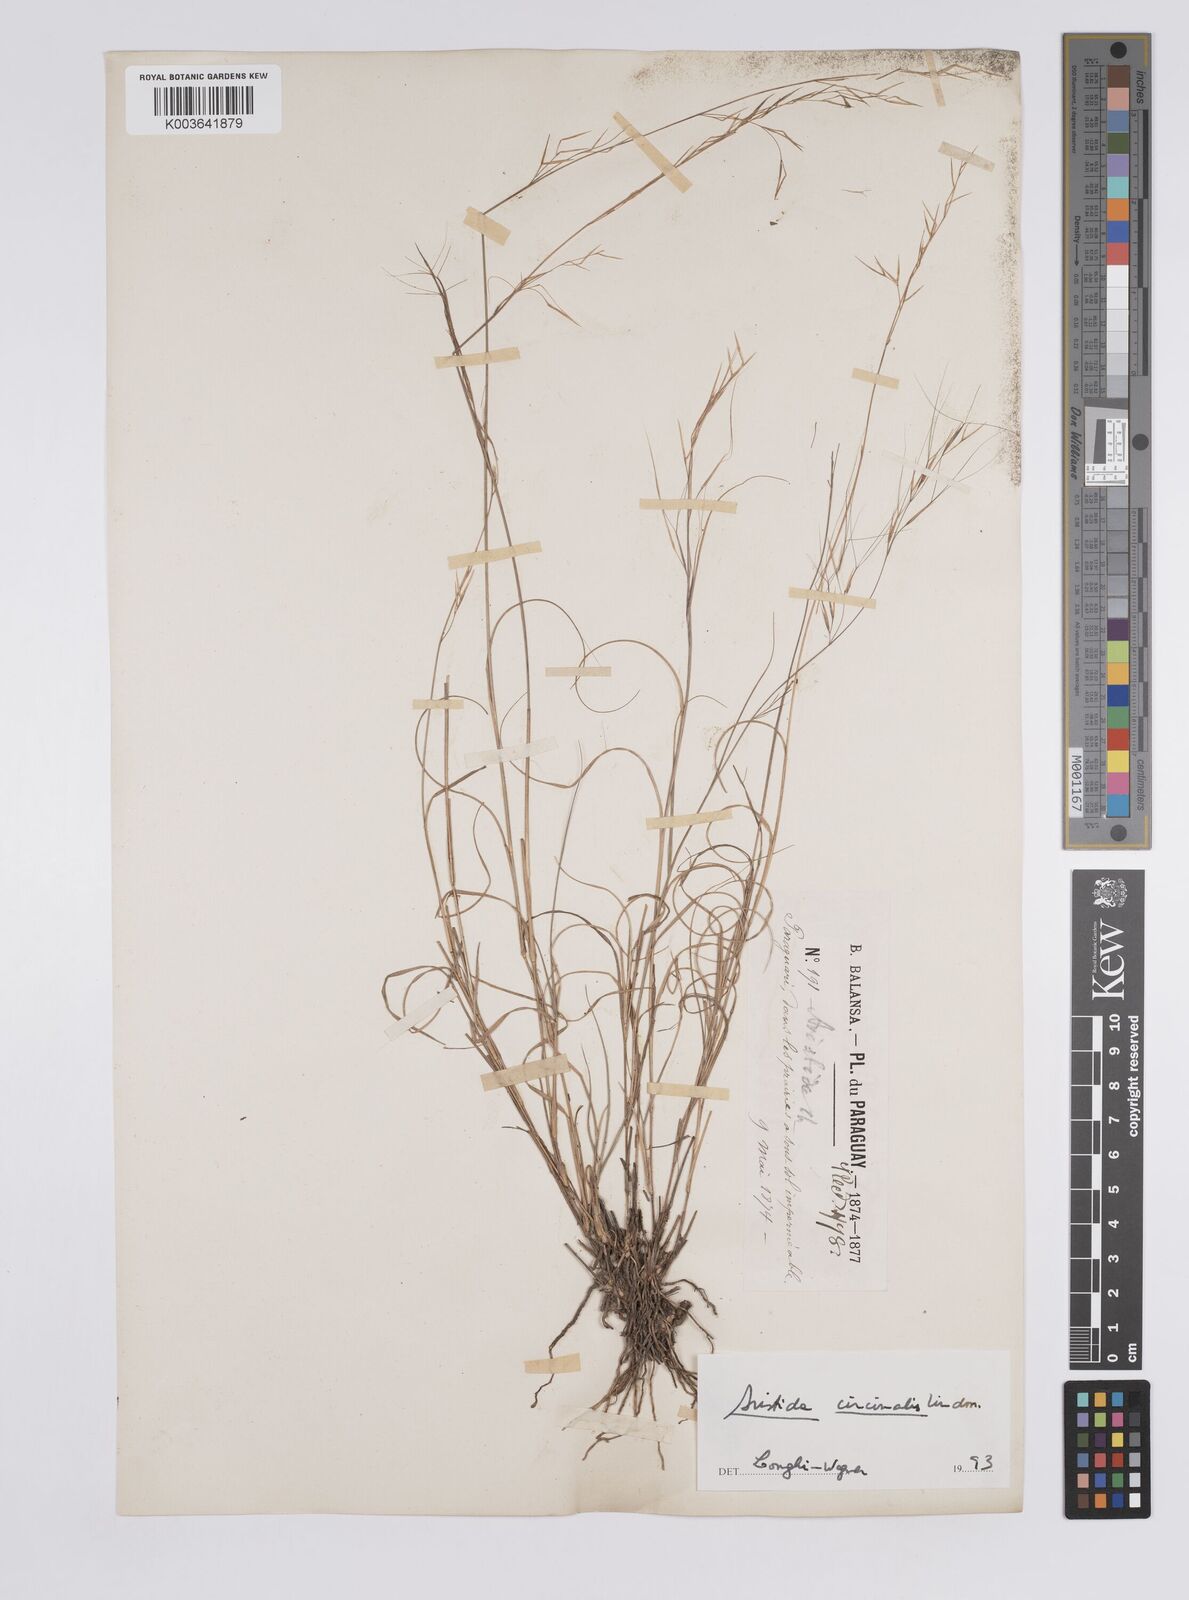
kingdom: Plantae
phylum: Tracheophyta
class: Liliopsida
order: Poales
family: Poaceae
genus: Aristida
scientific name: Aristida circinalis
